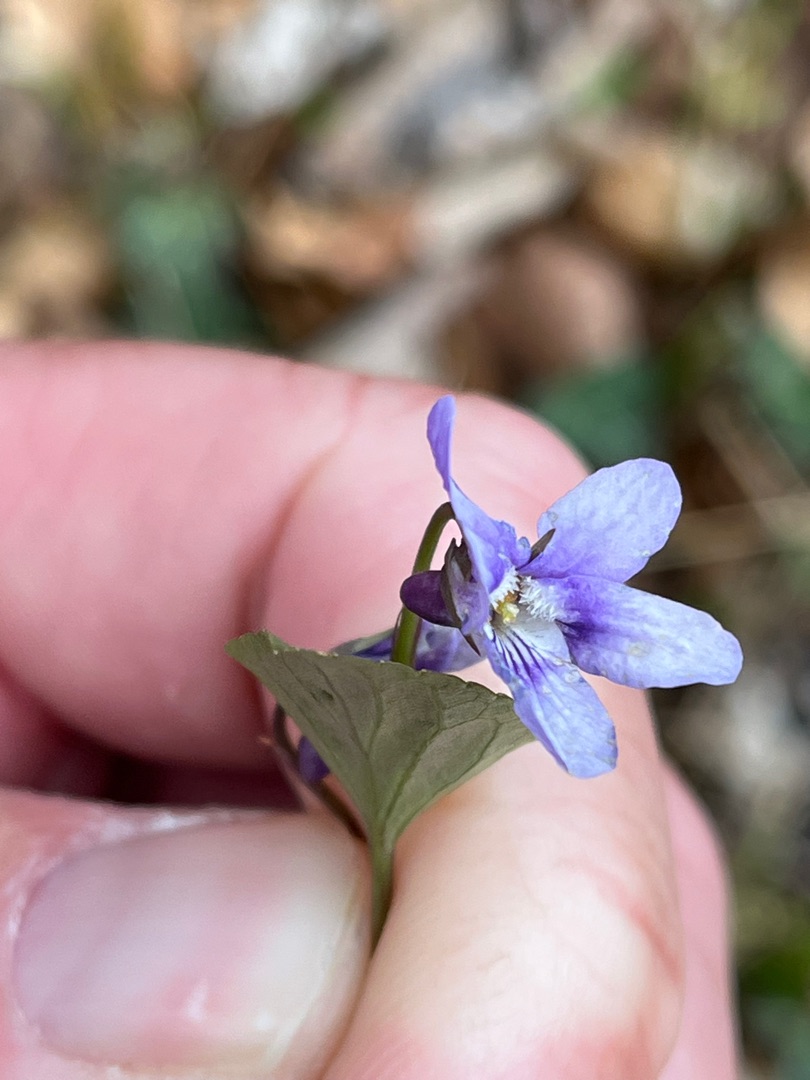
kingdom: Plantae
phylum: Tracheophyta
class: Magnoliopsida
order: Malpighiales
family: Violaceae
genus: Viola
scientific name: Viola reichenbachiana
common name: Skov-viol
